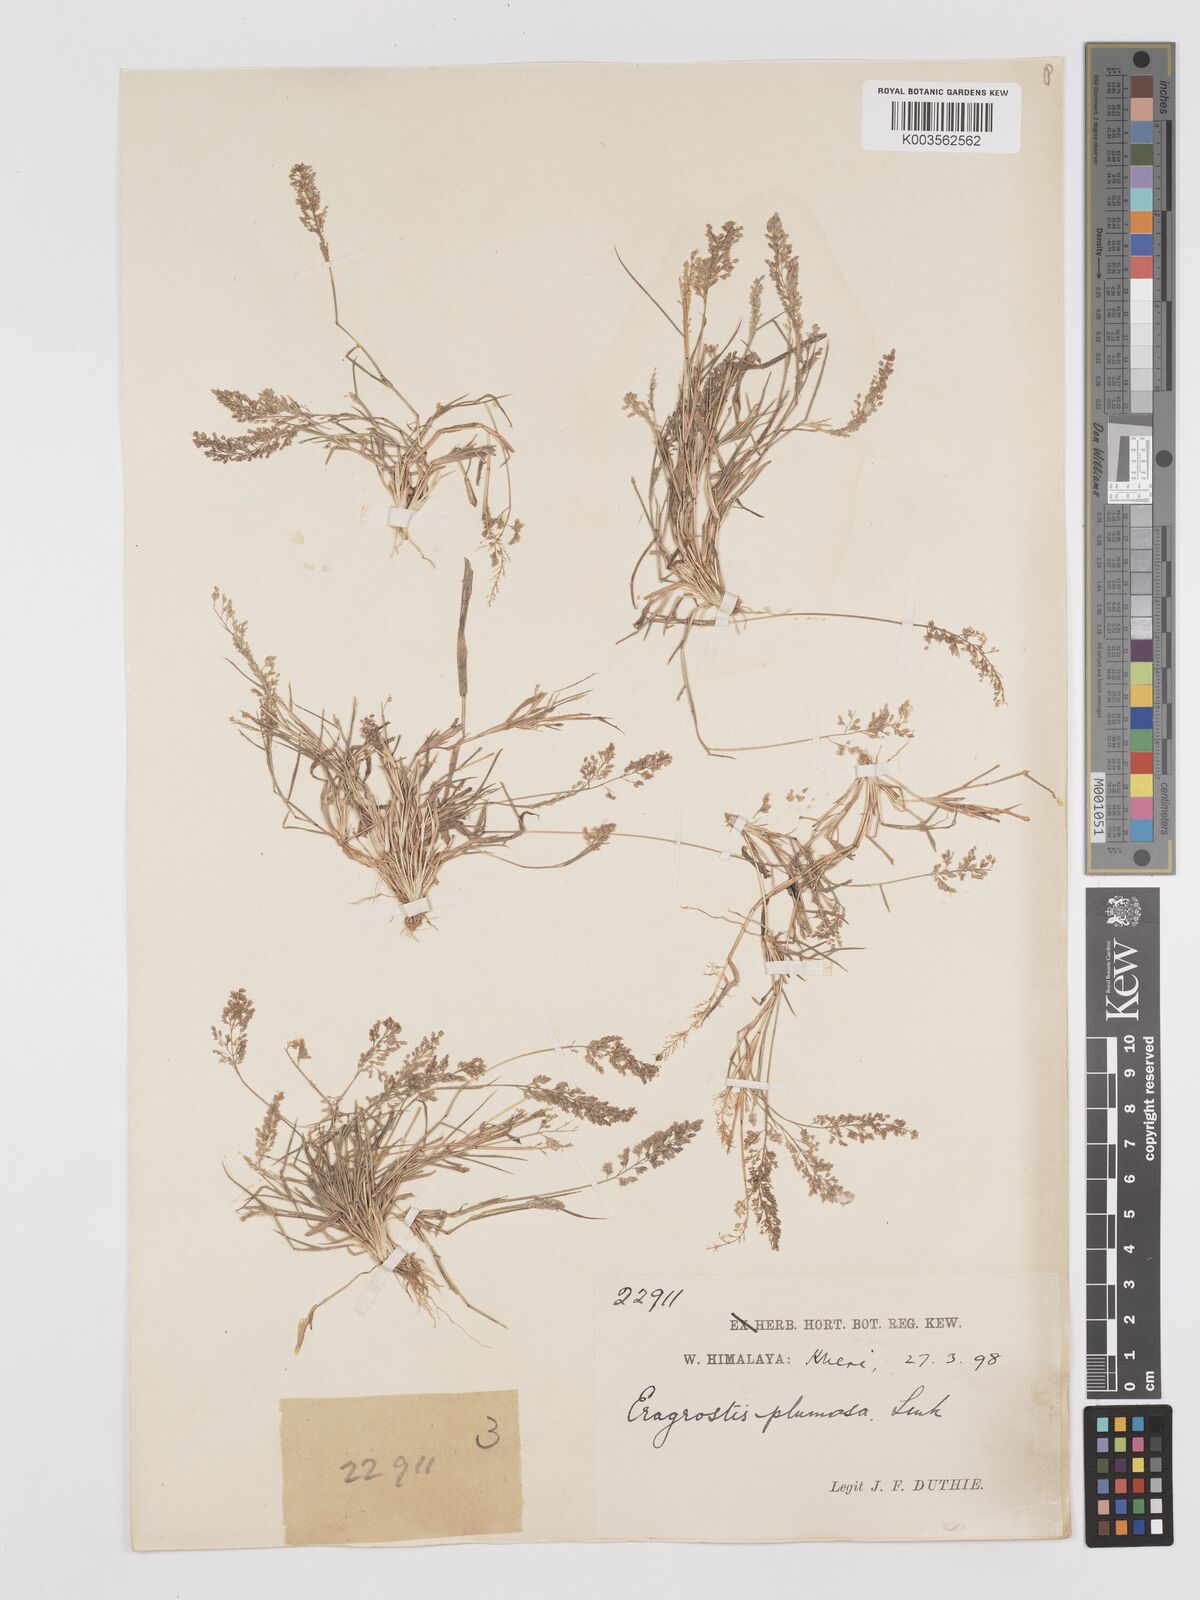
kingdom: Plantae
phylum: Tracheophyta
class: Liliopsida
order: Poales
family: Poaceae
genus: Eragrostis
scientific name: Eragrostis tenella
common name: Japanese lovegrass
